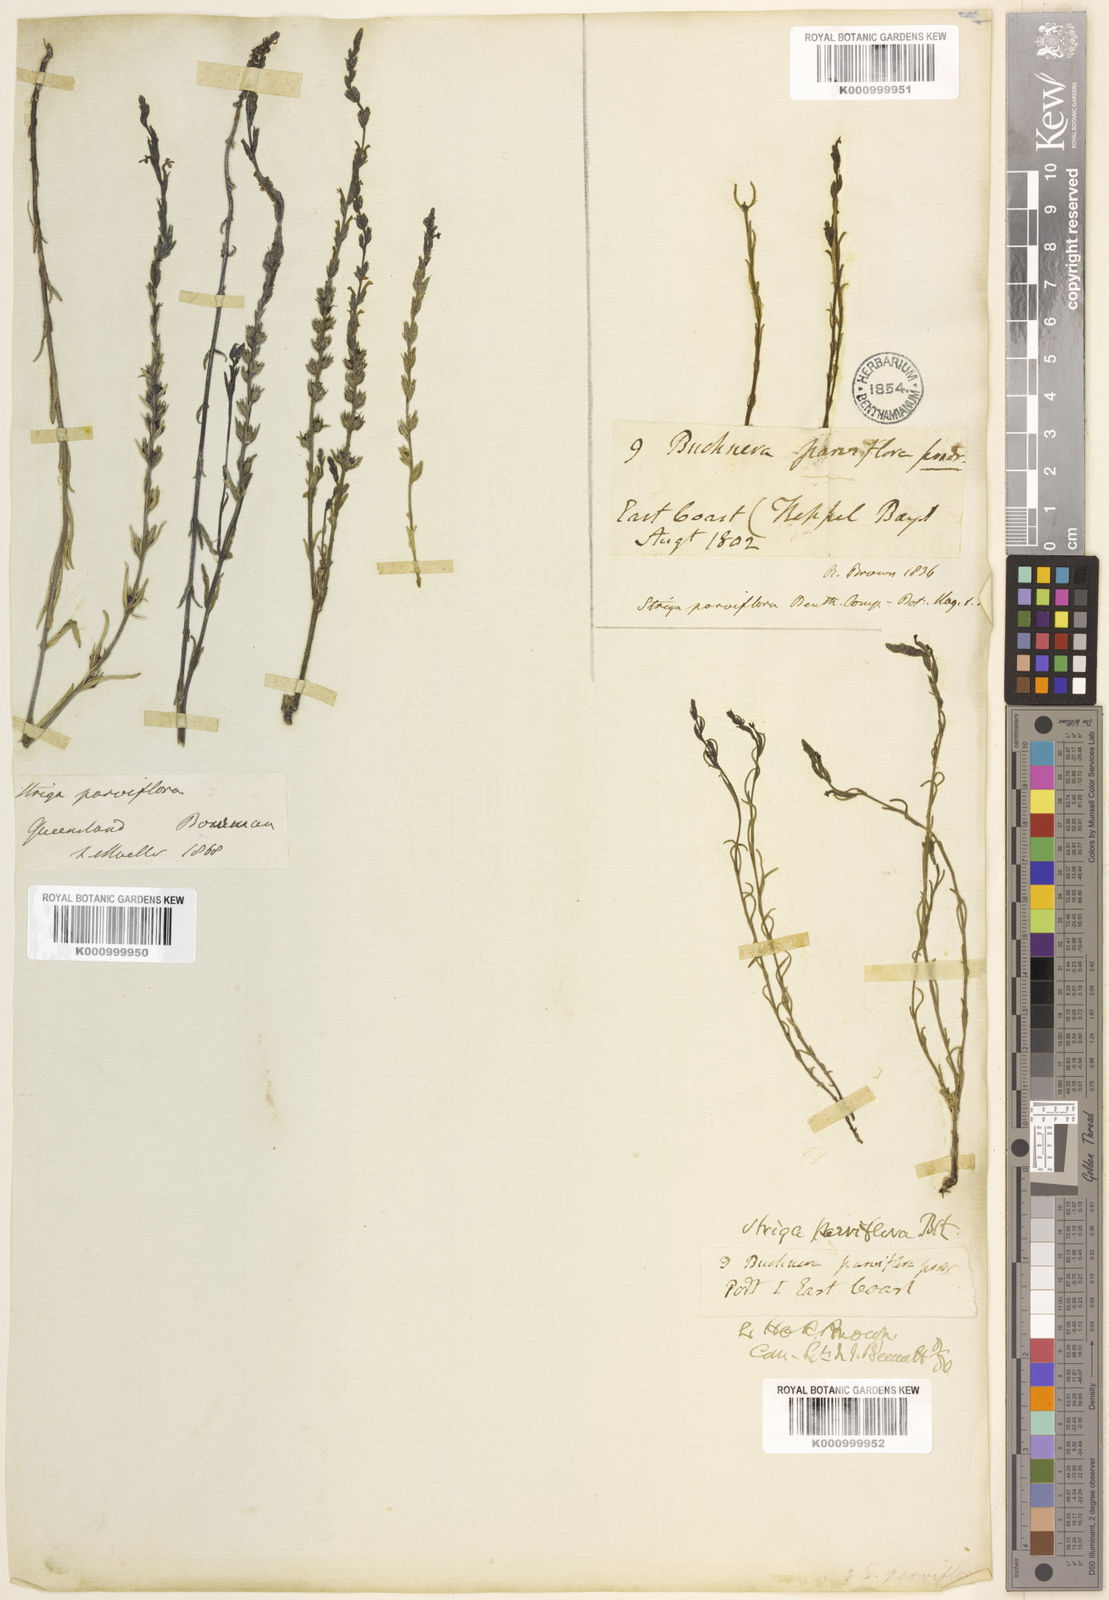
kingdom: Plantae
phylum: Tracheophyta
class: Magnoliopsida
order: Lamiales
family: Orobanchaceae
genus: Striga
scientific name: Striga parviflora
